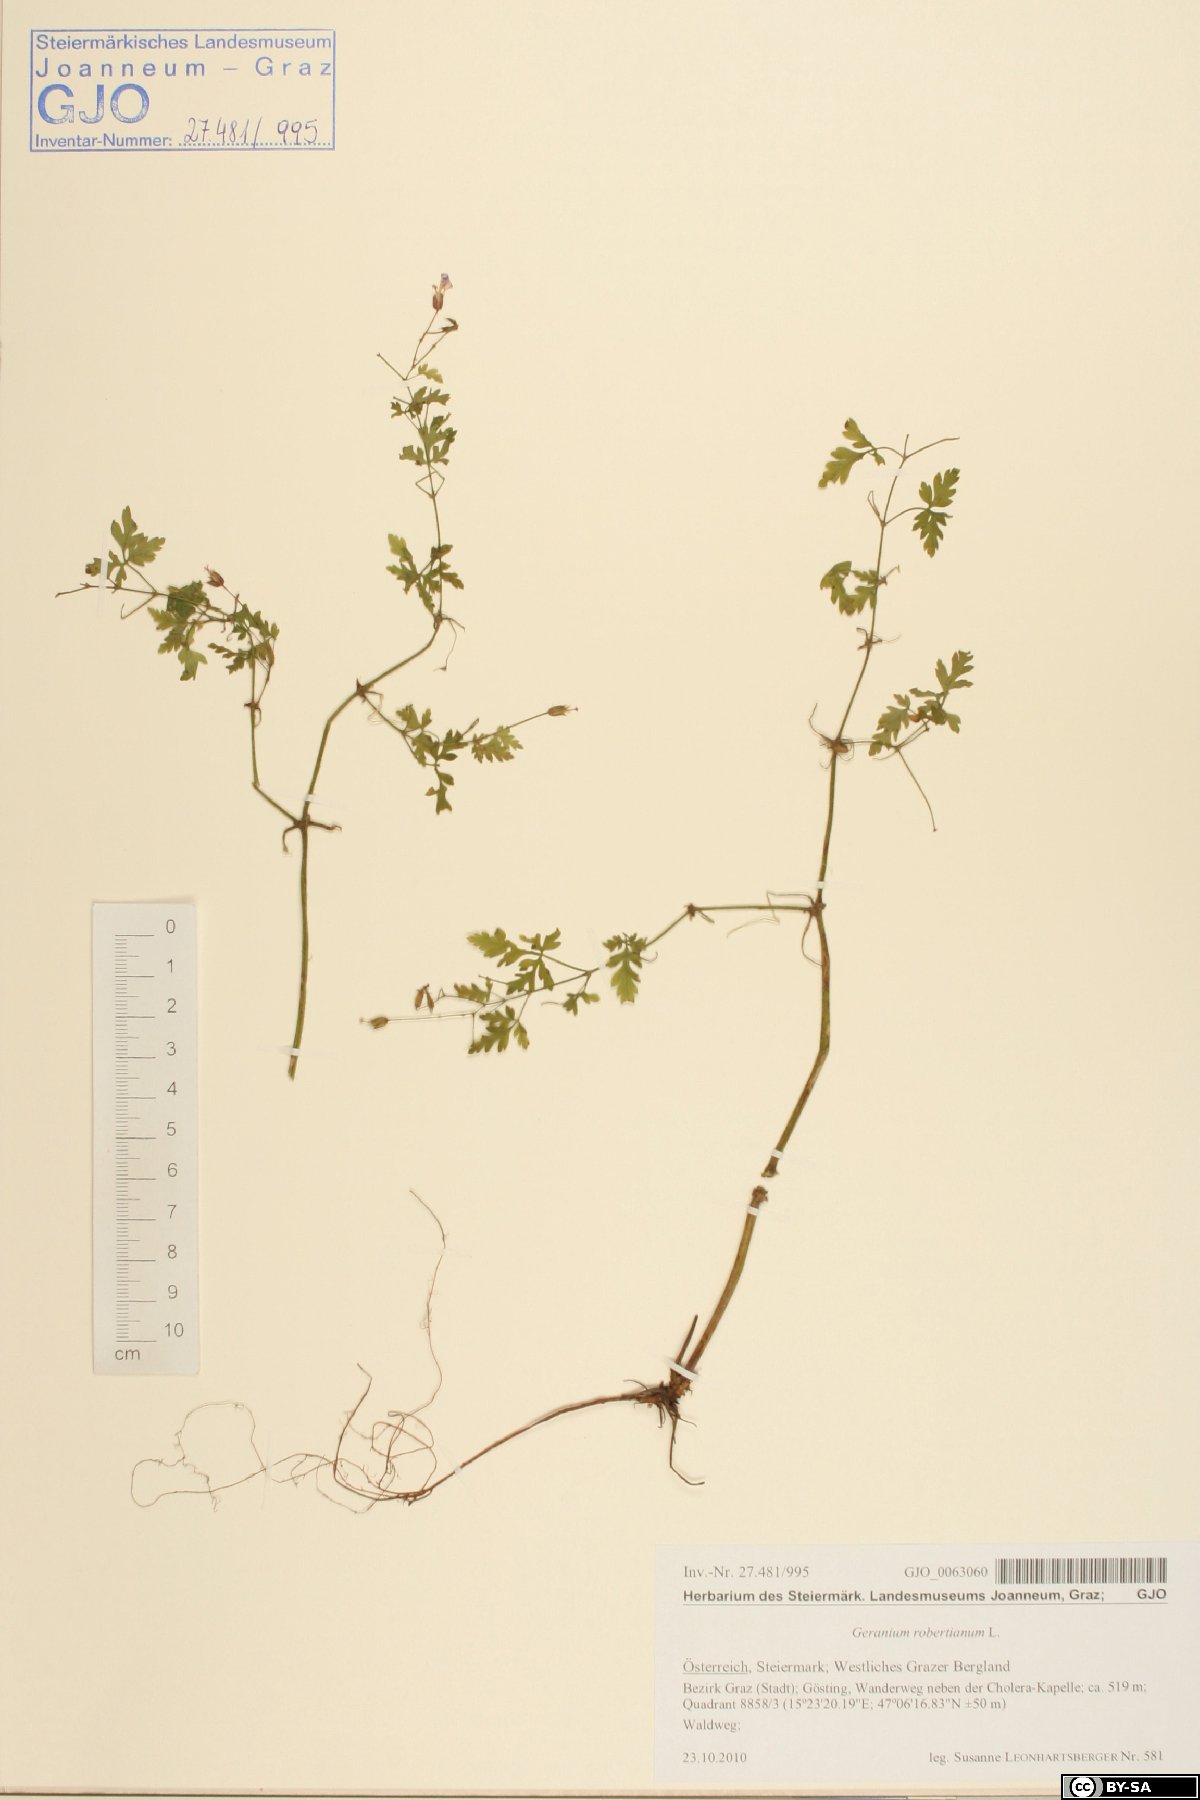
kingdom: Plantae
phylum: Tracheophyta
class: Magnoliopsida
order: Geraniales
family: Geraniaceae
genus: Geranium
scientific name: Geranium robertianum
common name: Herb-robert
